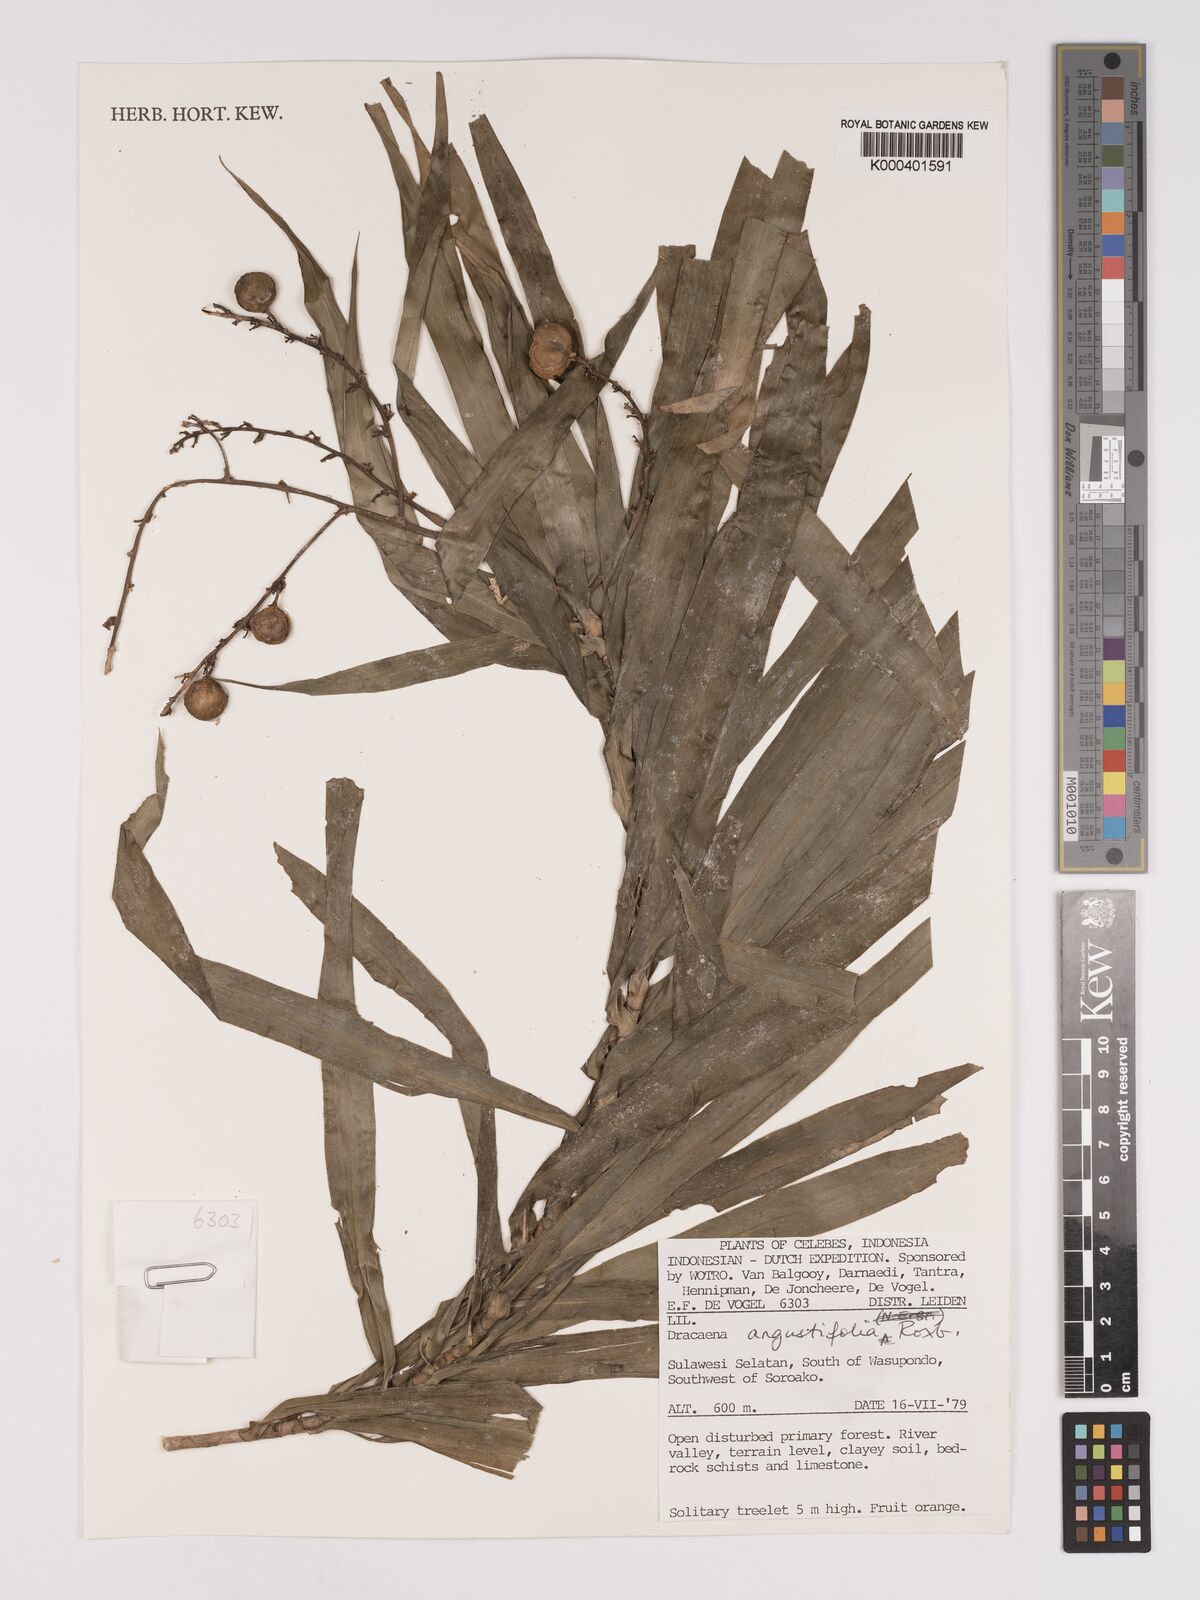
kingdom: Plantae
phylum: Tracheophyta
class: Liliopsida
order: Asparagales
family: Asparagaceae
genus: Dracaena
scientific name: Dracaena angustifolia
